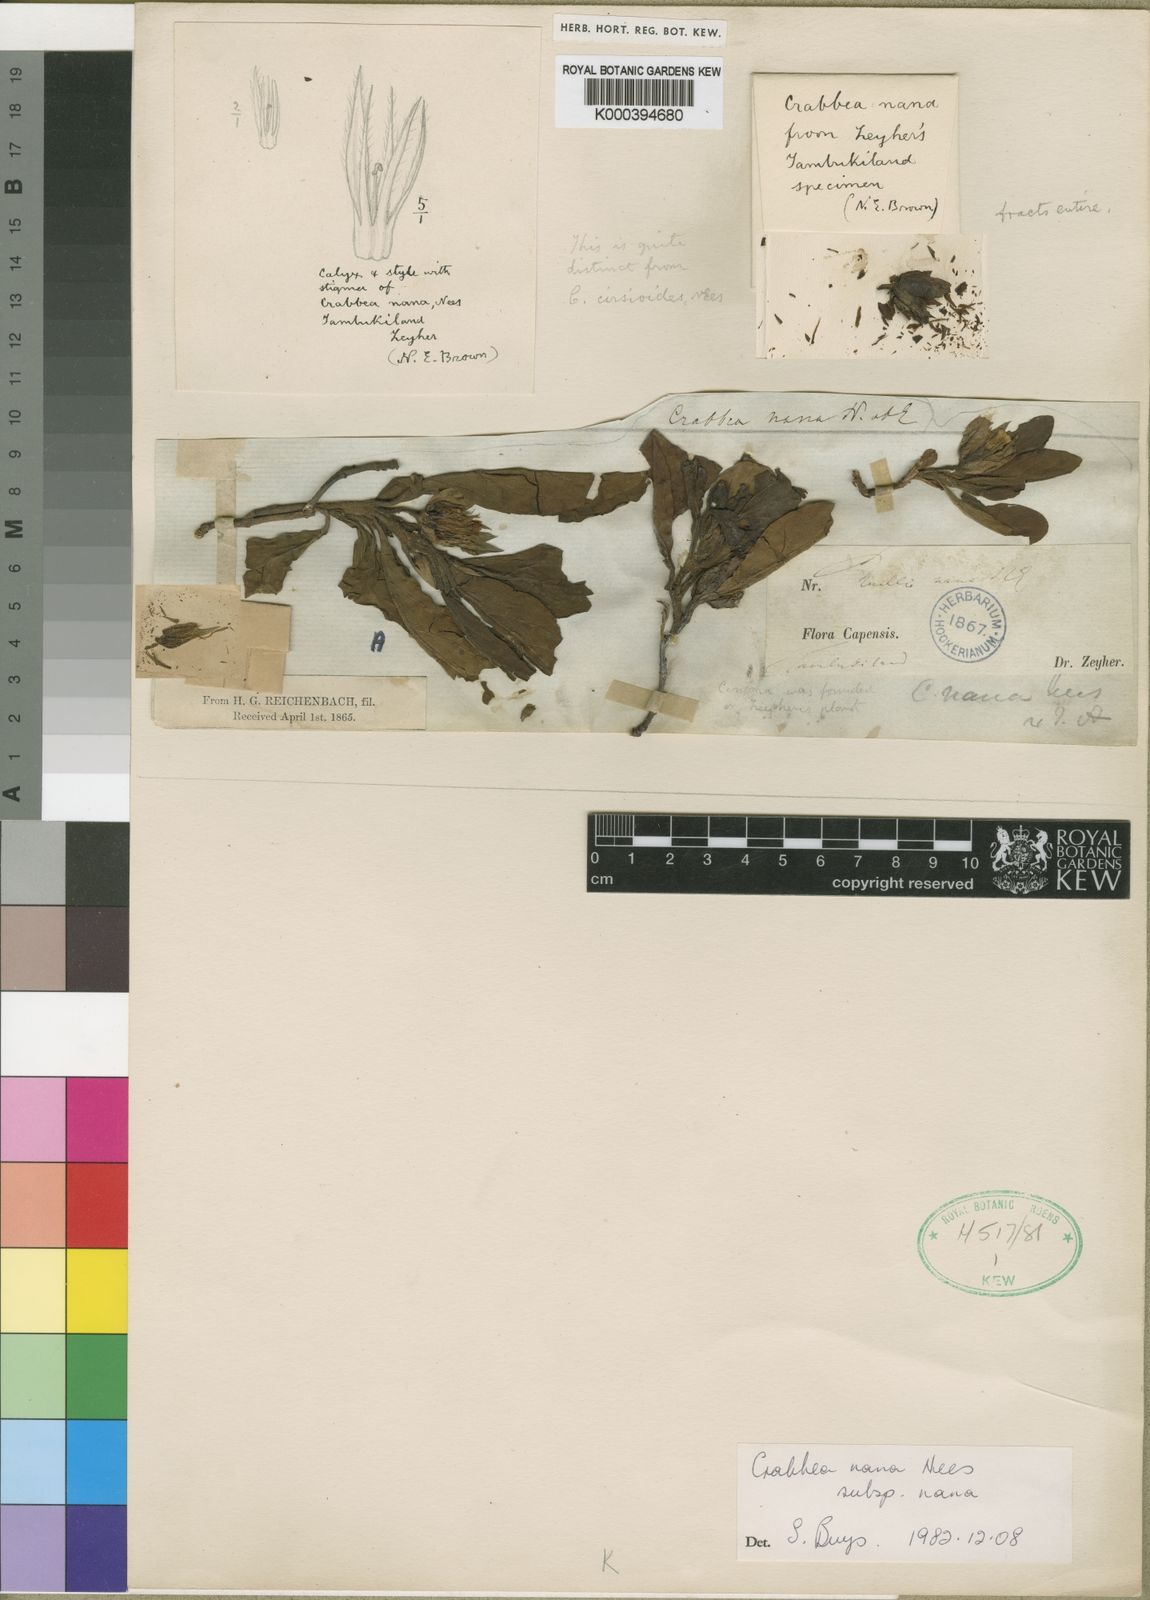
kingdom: Plantae
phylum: Tracheophyta
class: Magnoliopsida
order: Lamiales
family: Acanthaceae
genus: Crabbea
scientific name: Crabbea nana
